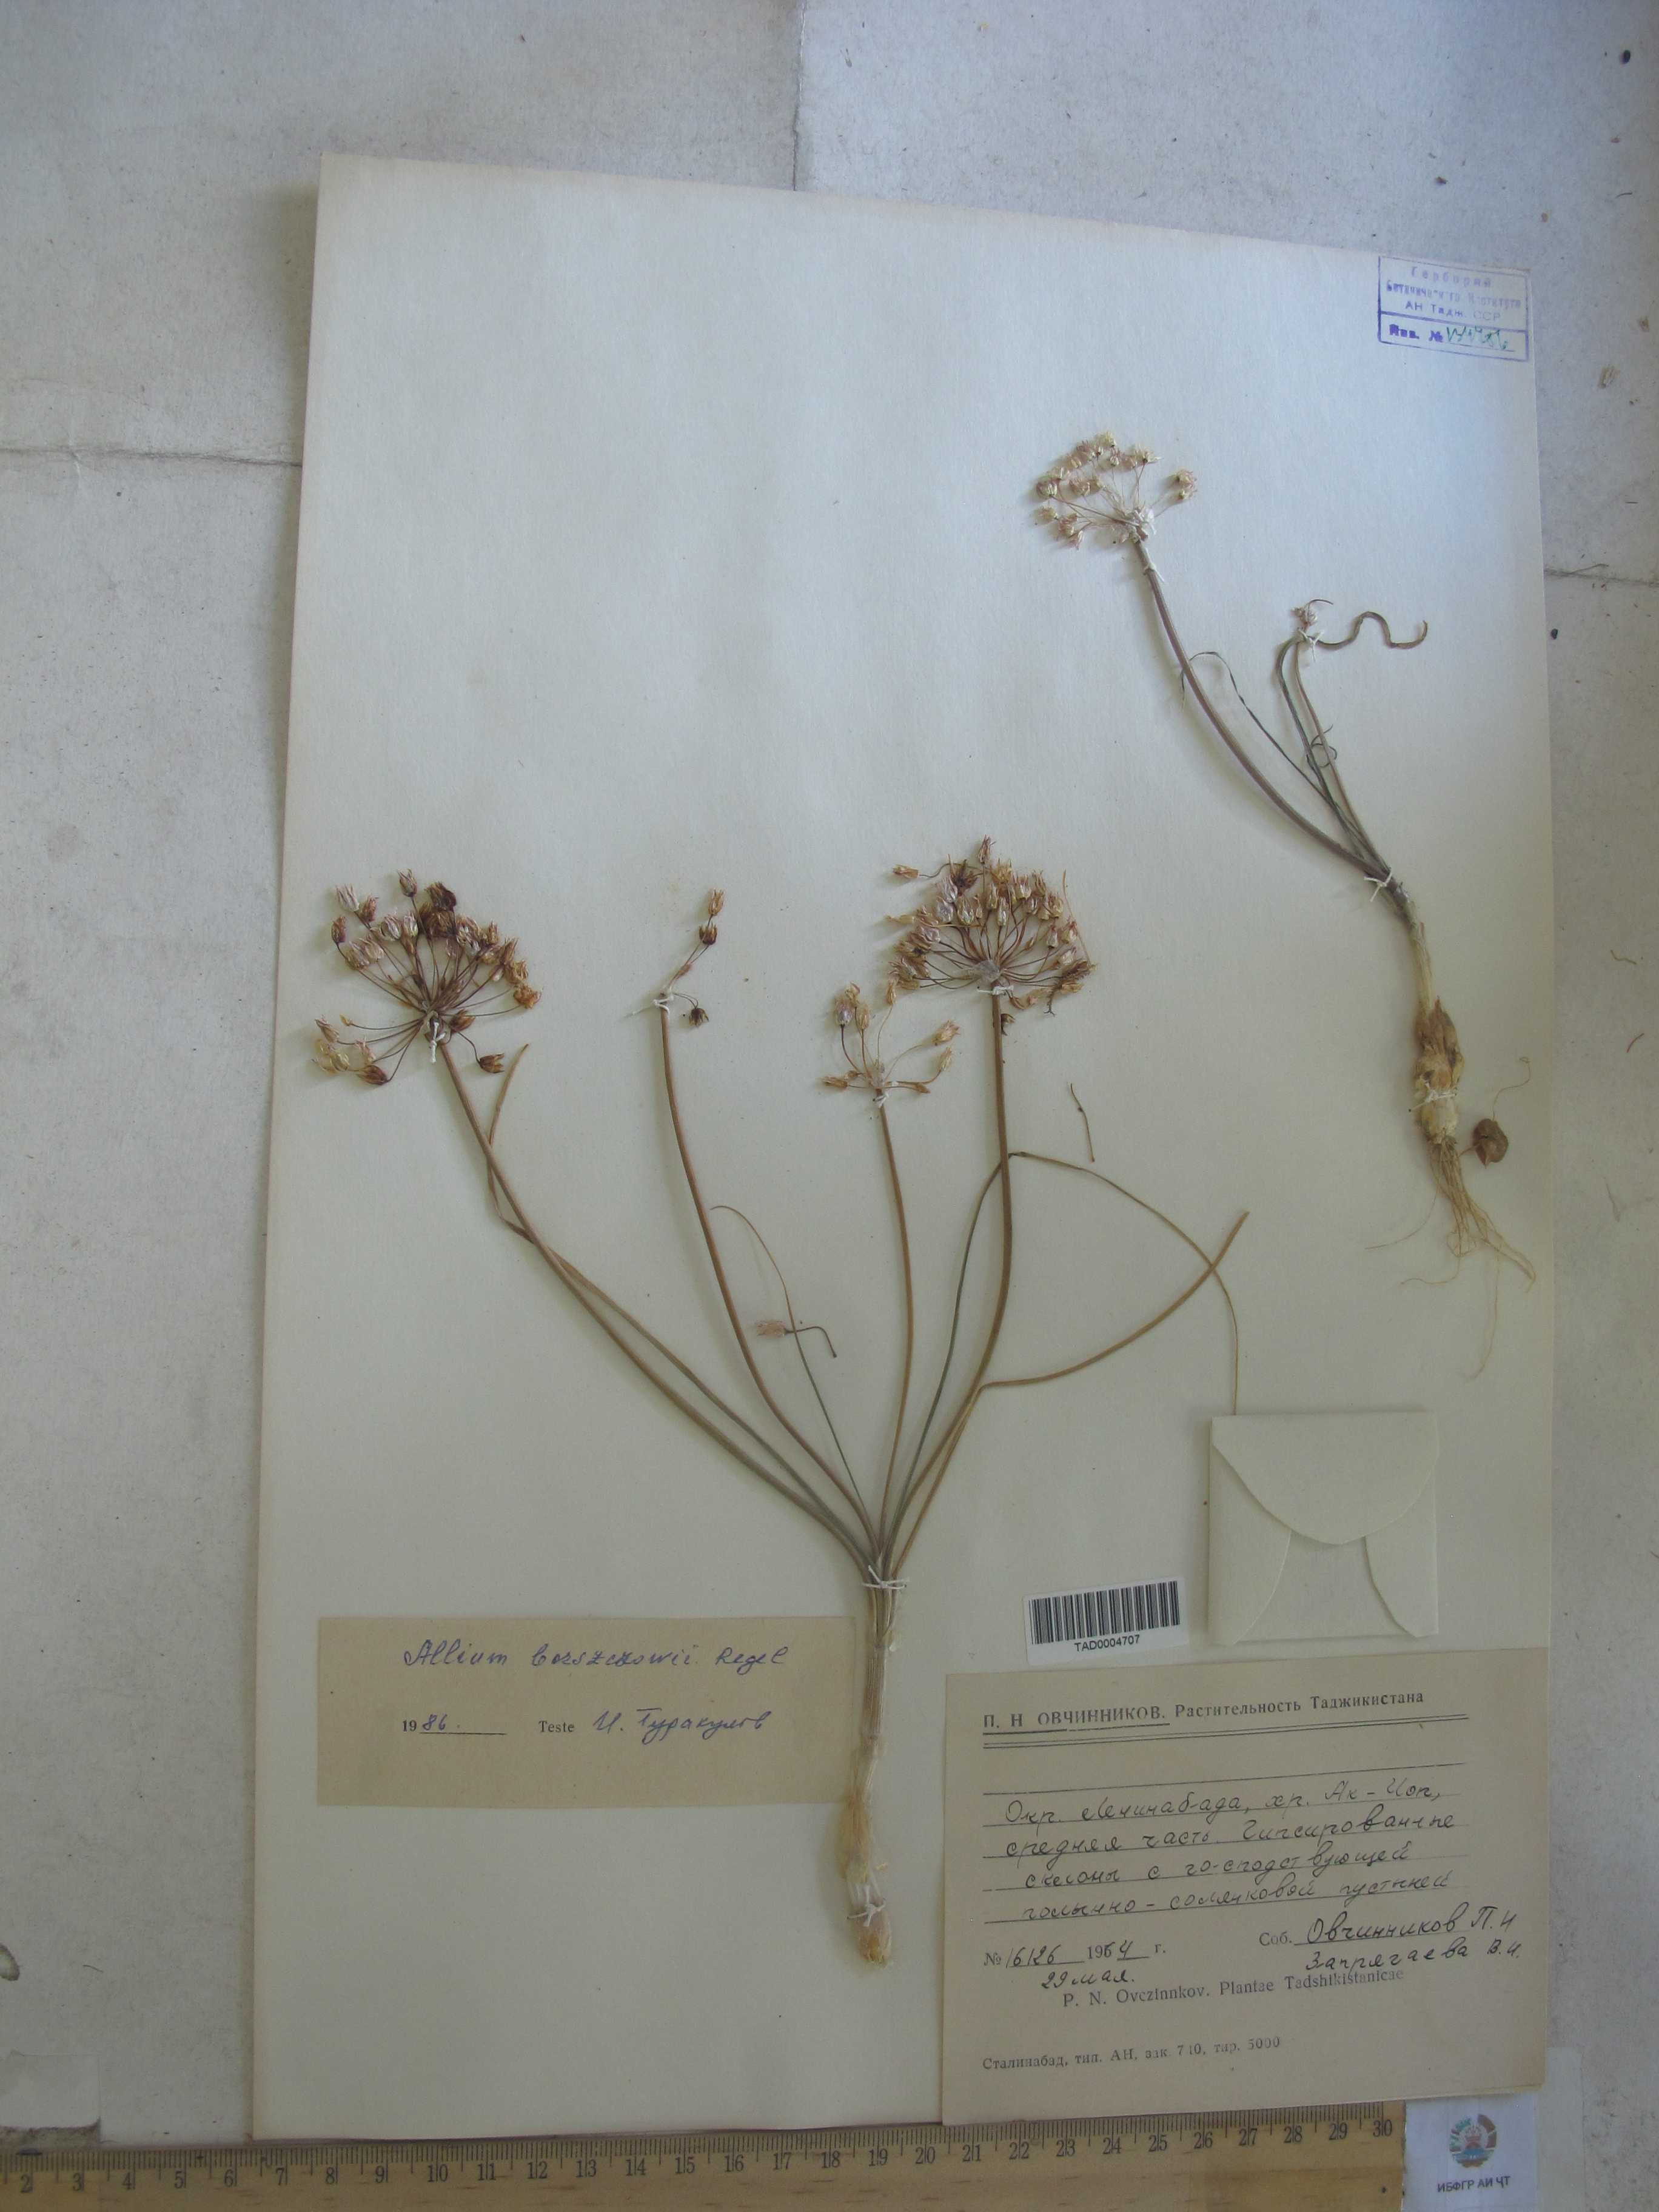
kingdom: Plantae
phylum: Tracheophyta
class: Liliopsida
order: Asparagales
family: Amaryllidaceae
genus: Allium
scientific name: Allium borszczowii
